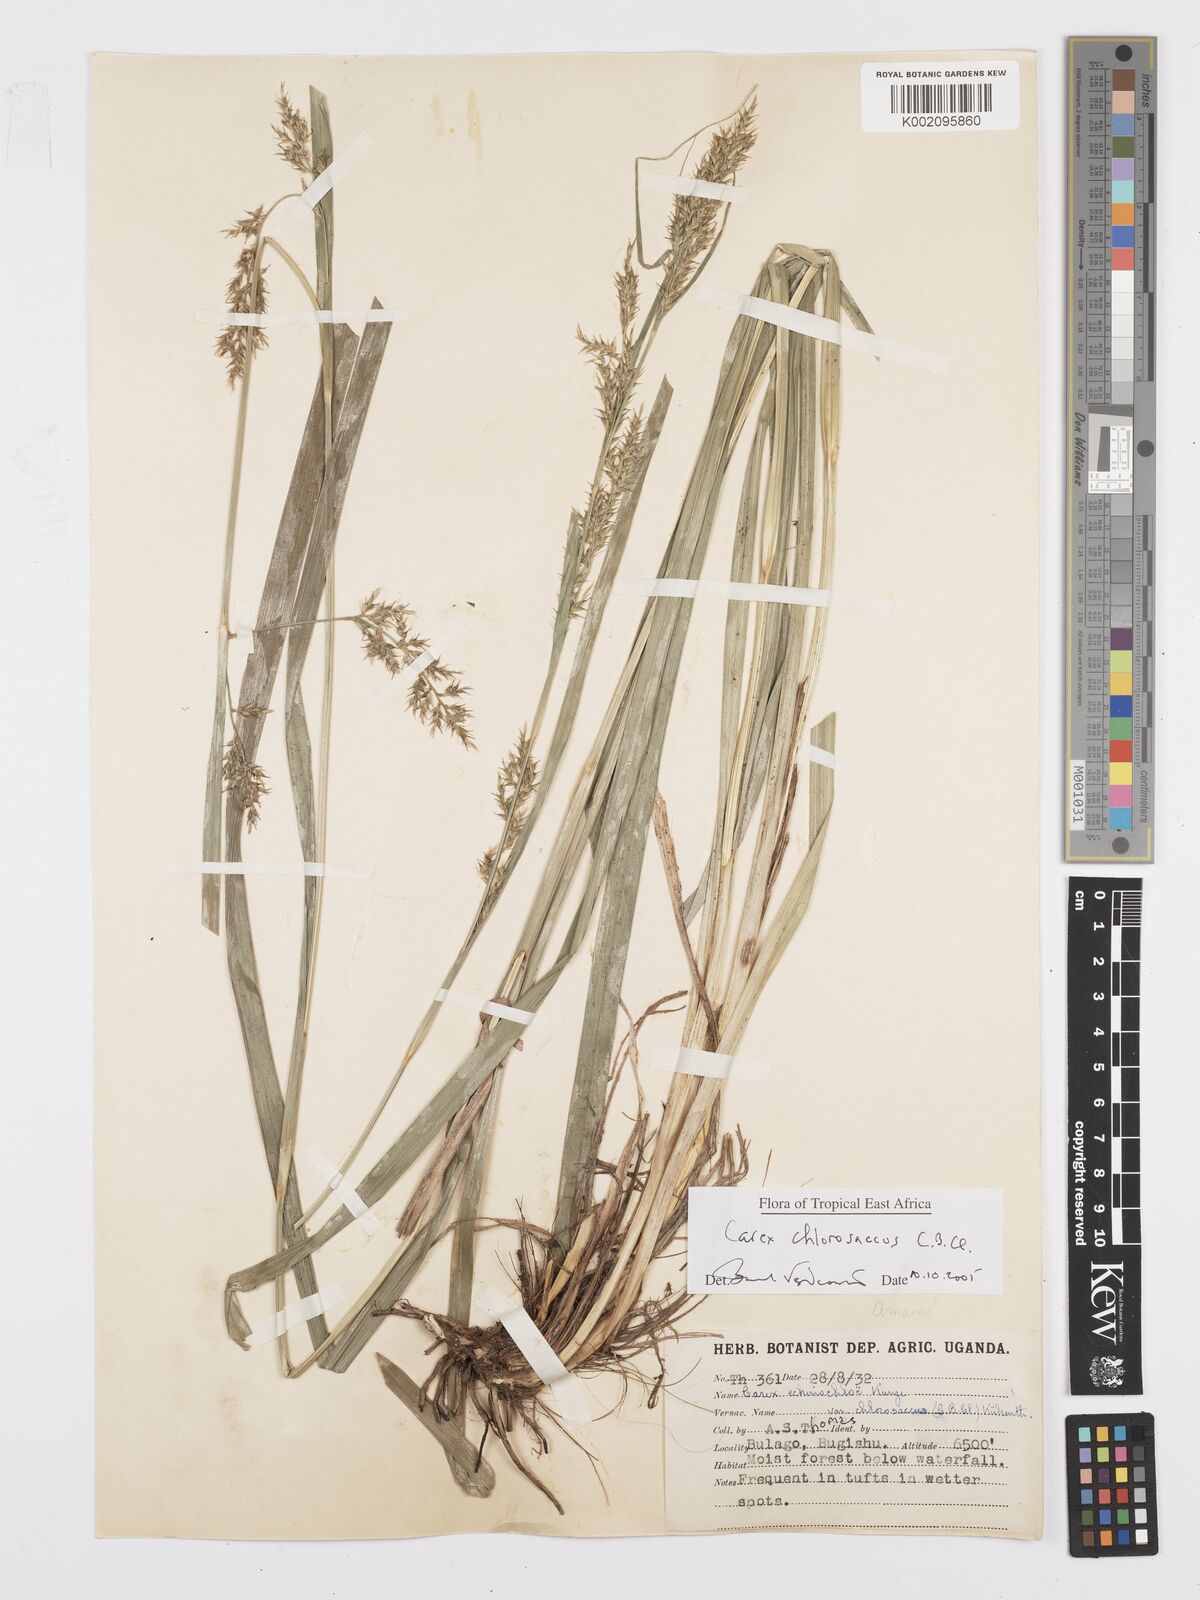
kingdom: Plantae
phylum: Tracheophyta
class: Liliopsida
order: Poales
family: Cyperaceae
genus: Carex
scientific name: Carex chlorosaccus
